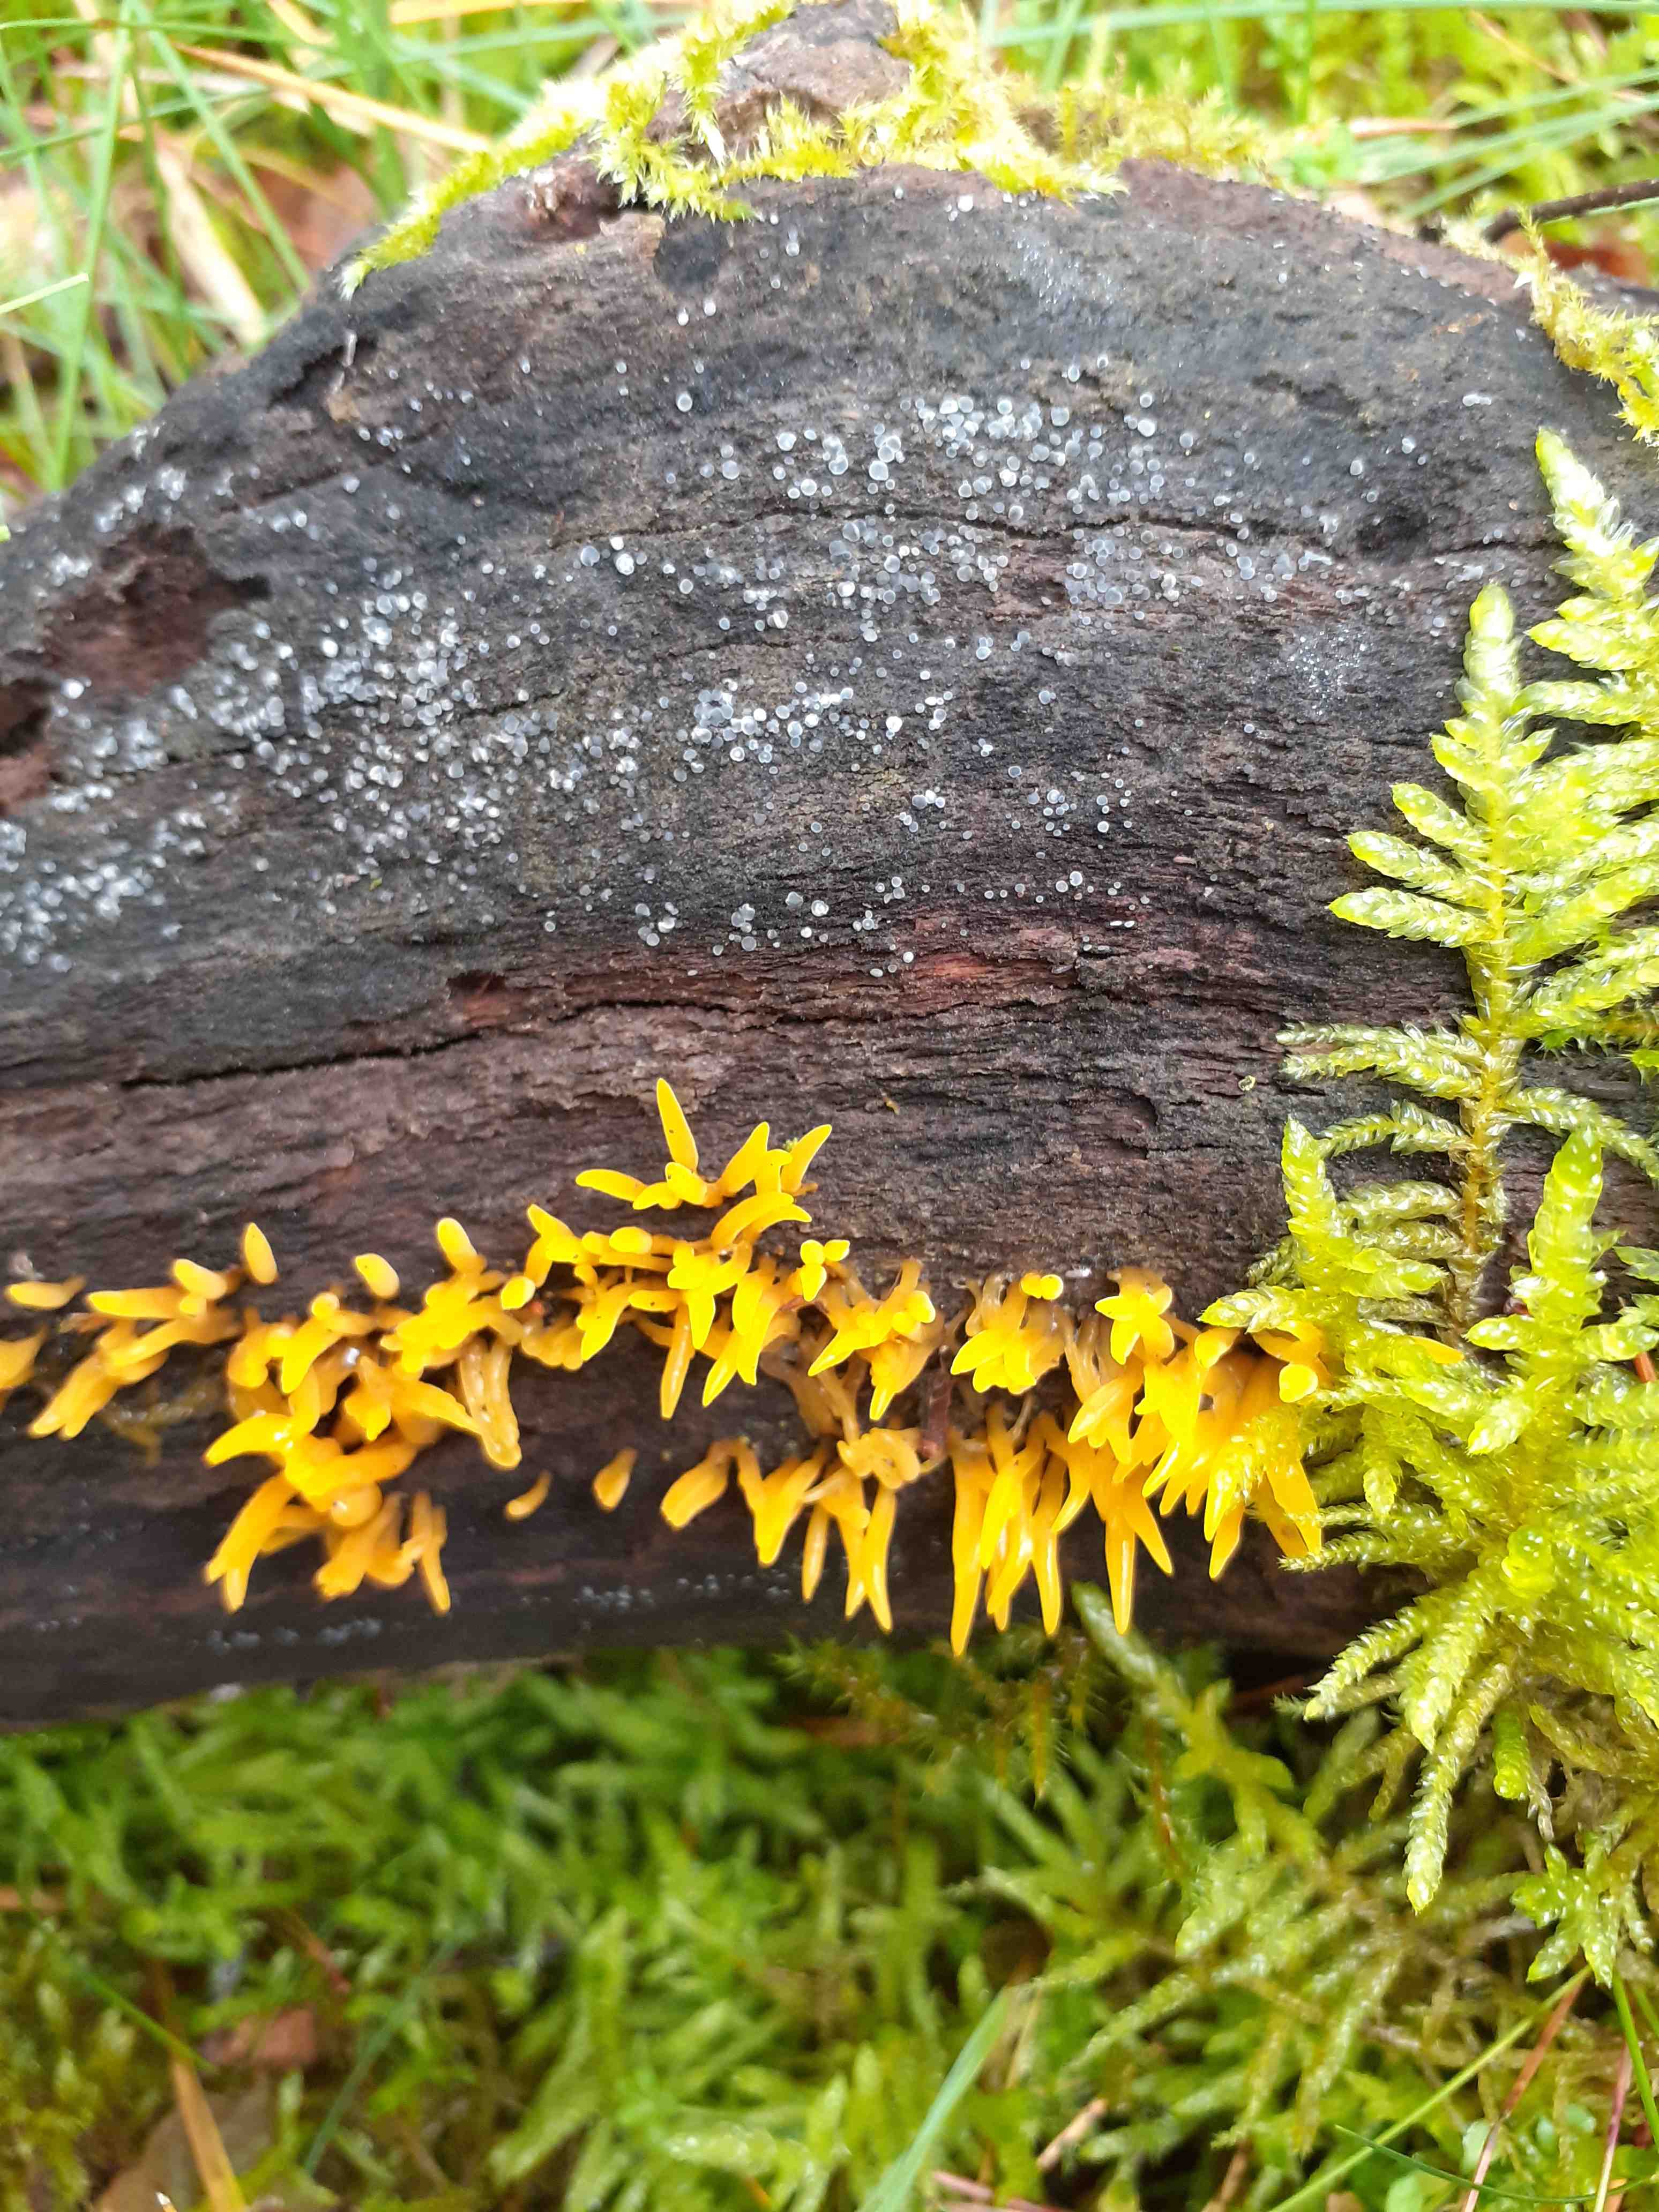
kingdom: Fungi
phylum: Basidiomycota
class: Dacrymycetes
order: Dacrymycetales
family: Dacrymycetaceae
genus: Calocera
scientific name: Calocera cornea
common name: liden guldgaffel
